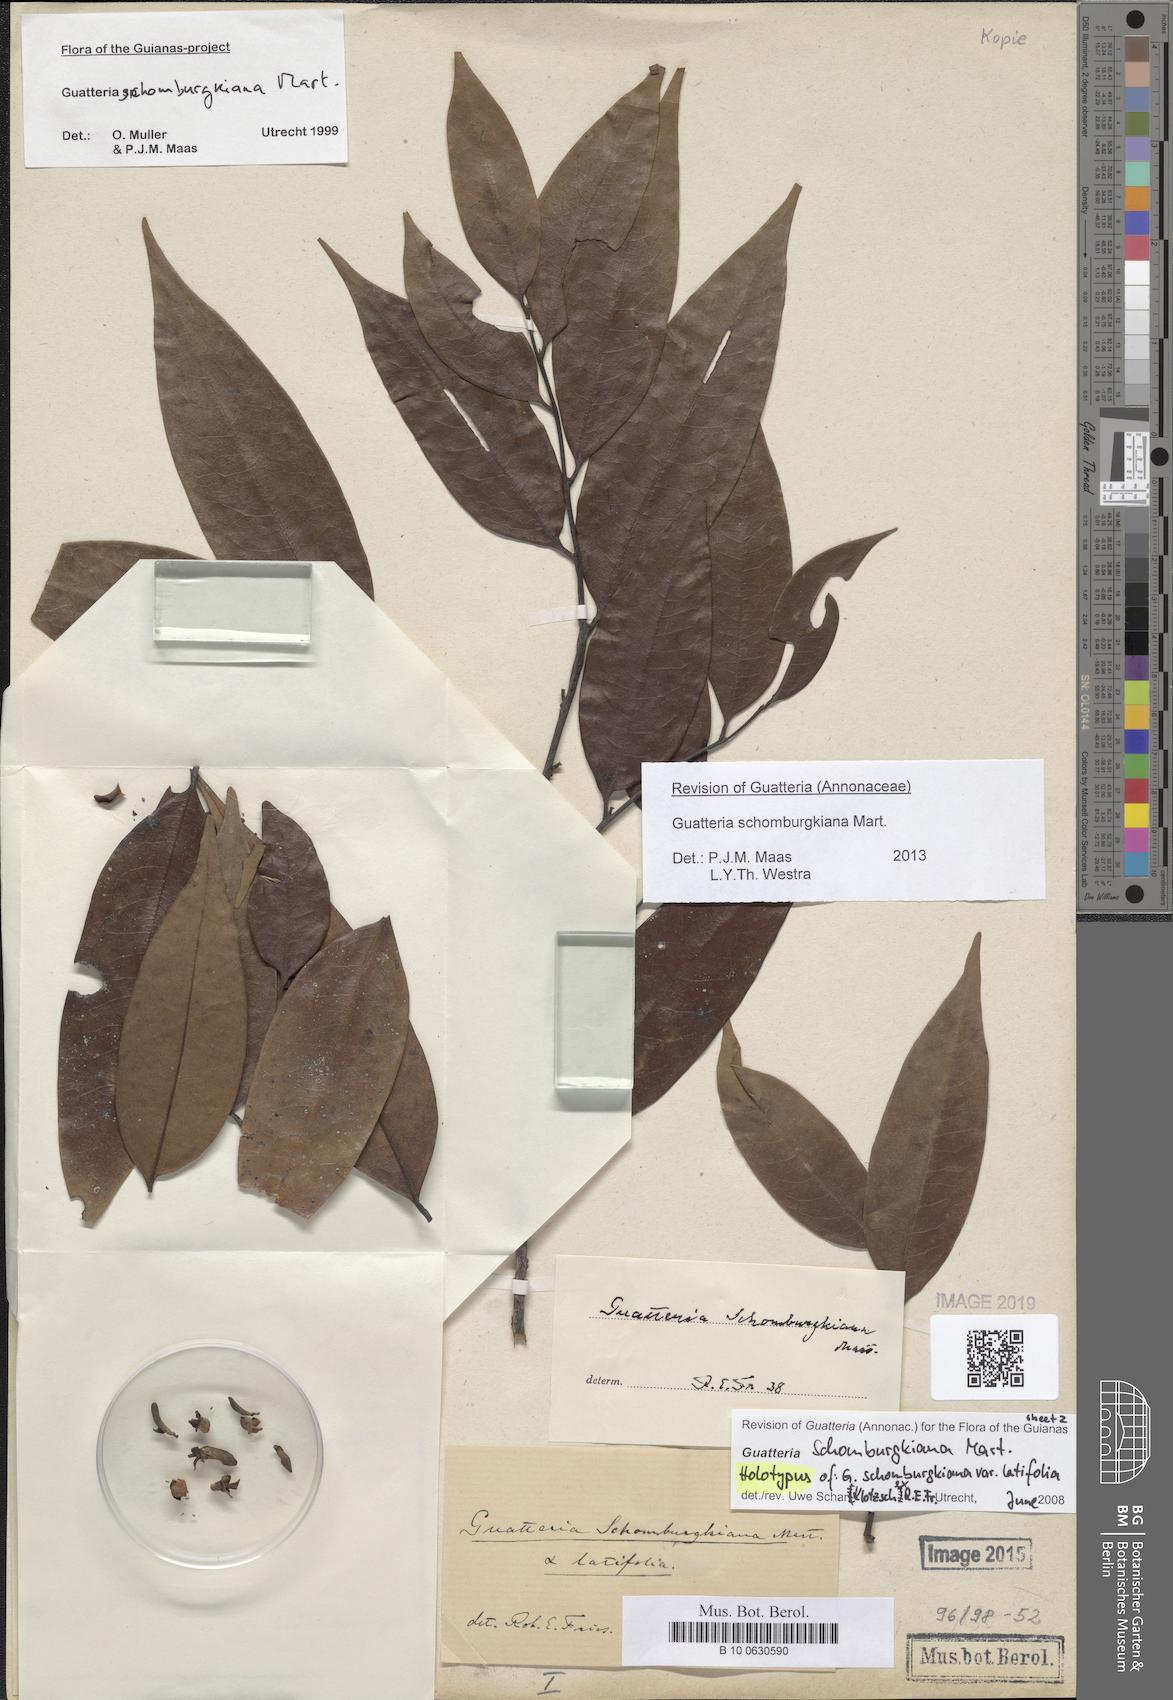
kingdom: Plantae
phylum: Tracheophyta
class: Magnoliopsida
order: Magnoliales
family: Annonaceae
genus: Guatteria
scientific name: Guatteria schomburgkiana
